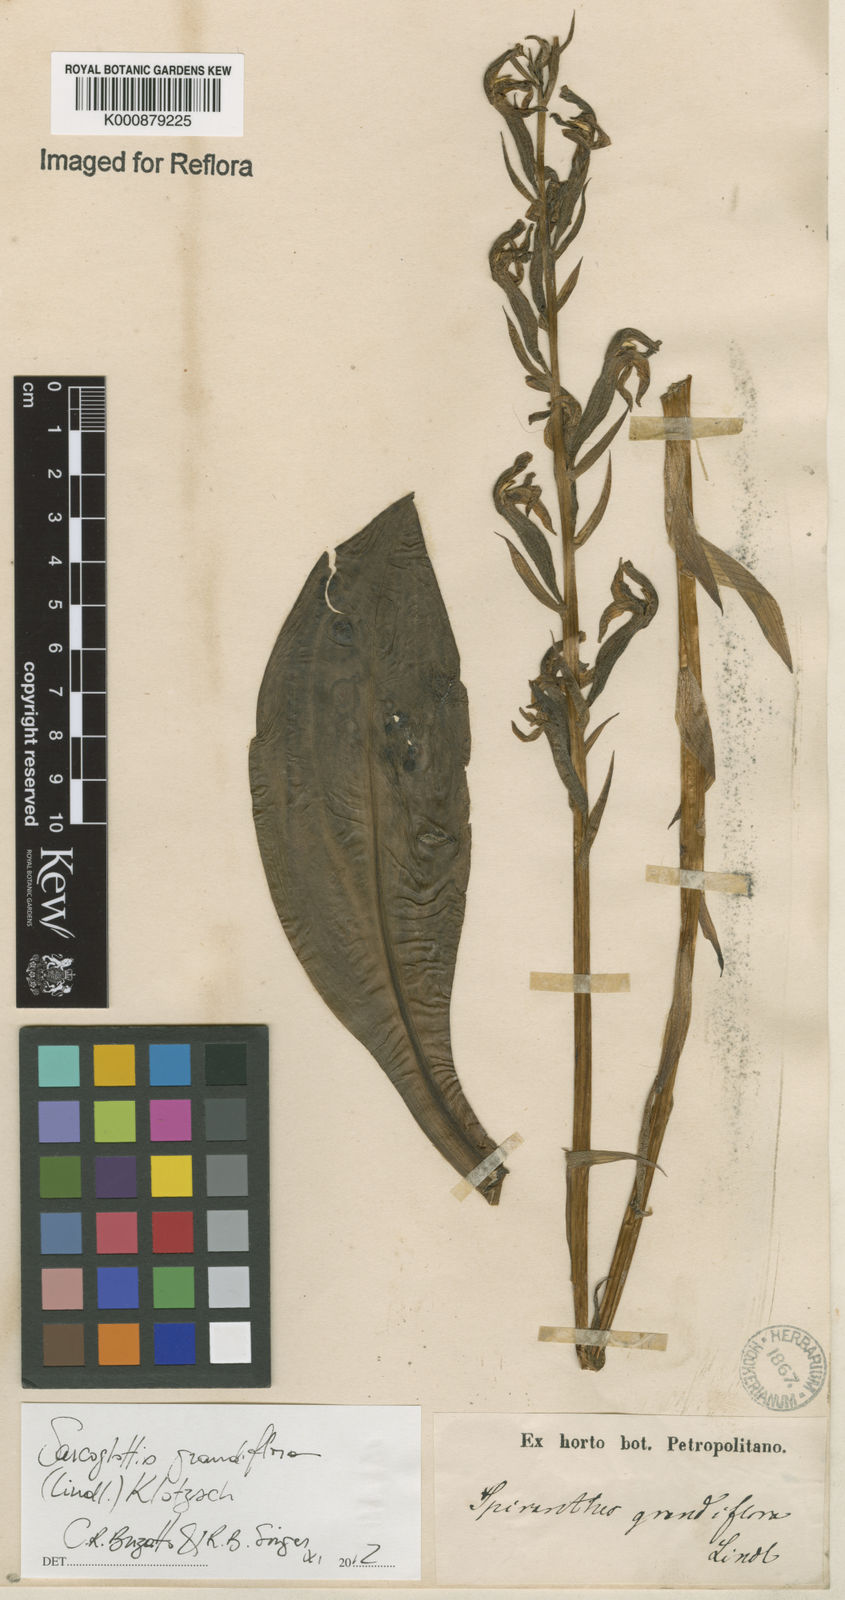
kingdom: Plantae
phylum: Tracheophyta
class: Liliopsida
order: Asparagales
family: Orchidaceae
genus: Sarcoglottis
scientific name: Sarcoglottis grandiflora
